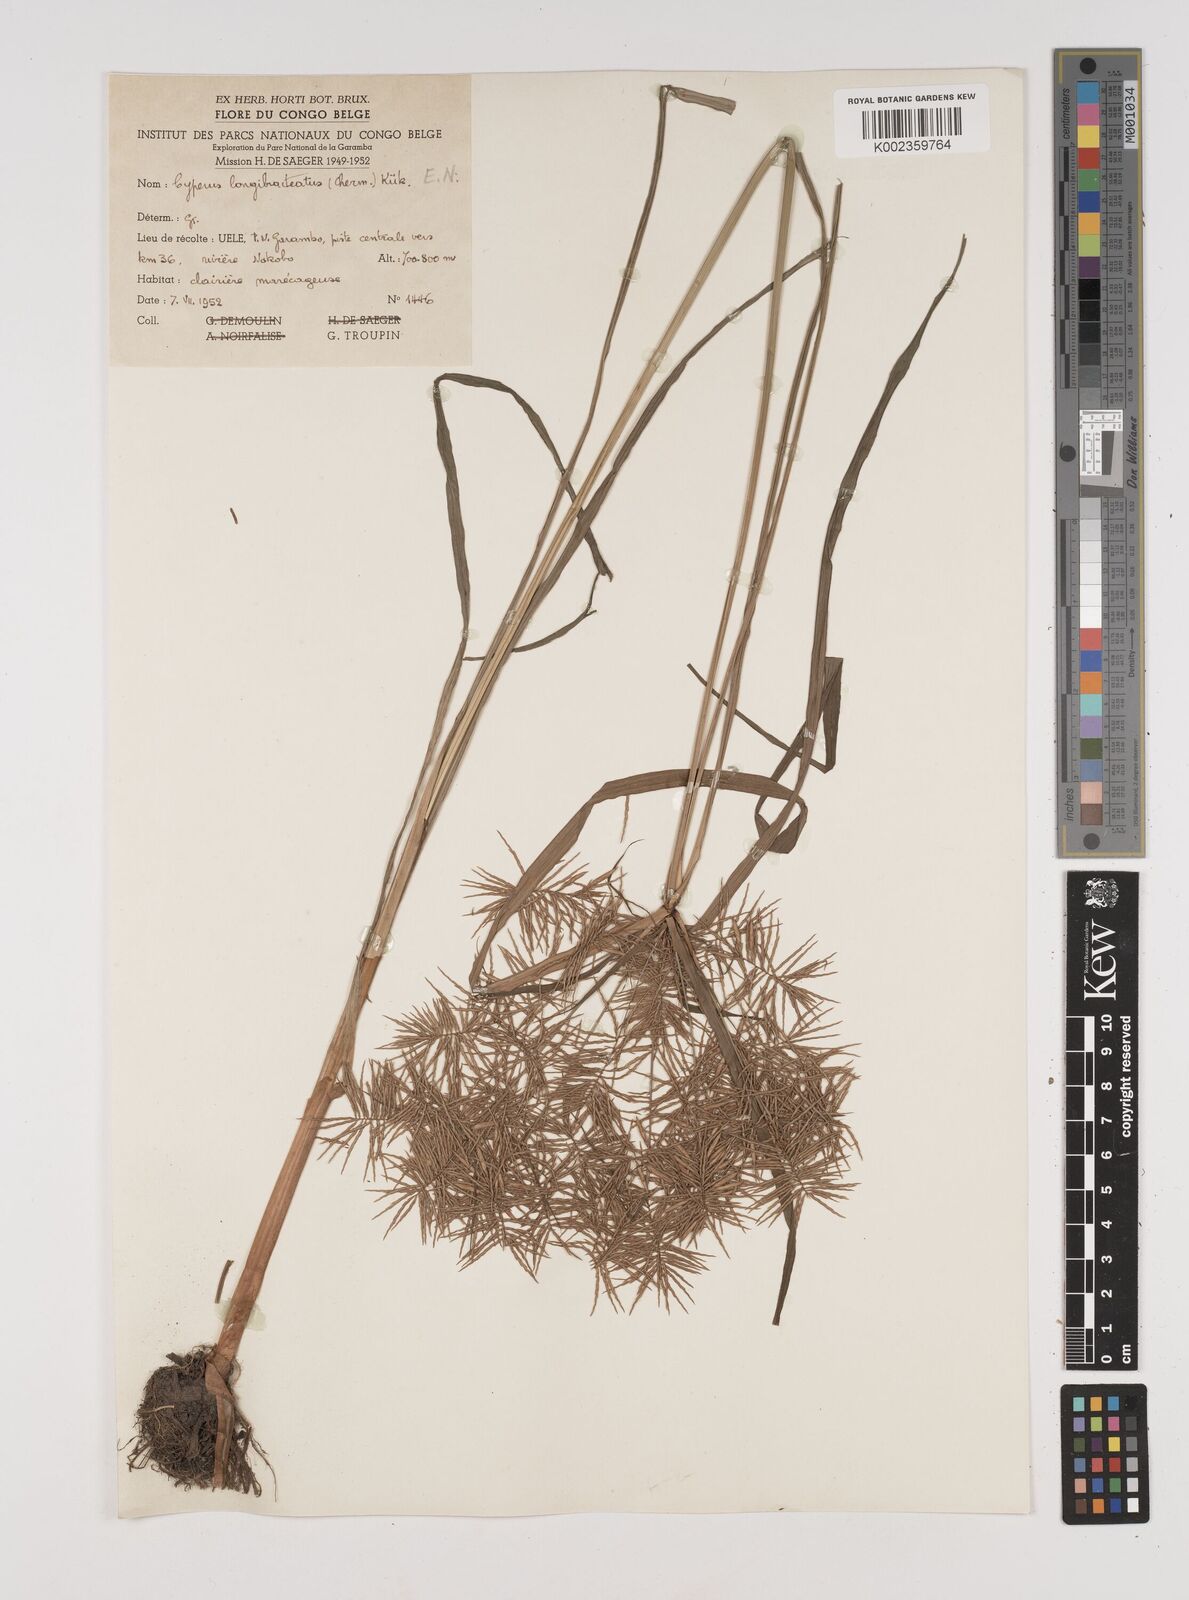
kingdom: Plantae
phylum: Tracheophyta
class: Liliopsida
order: Poales
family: Cyperaceae
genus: Cyperus
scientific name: Cyperus distans
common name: Slender cyperus
